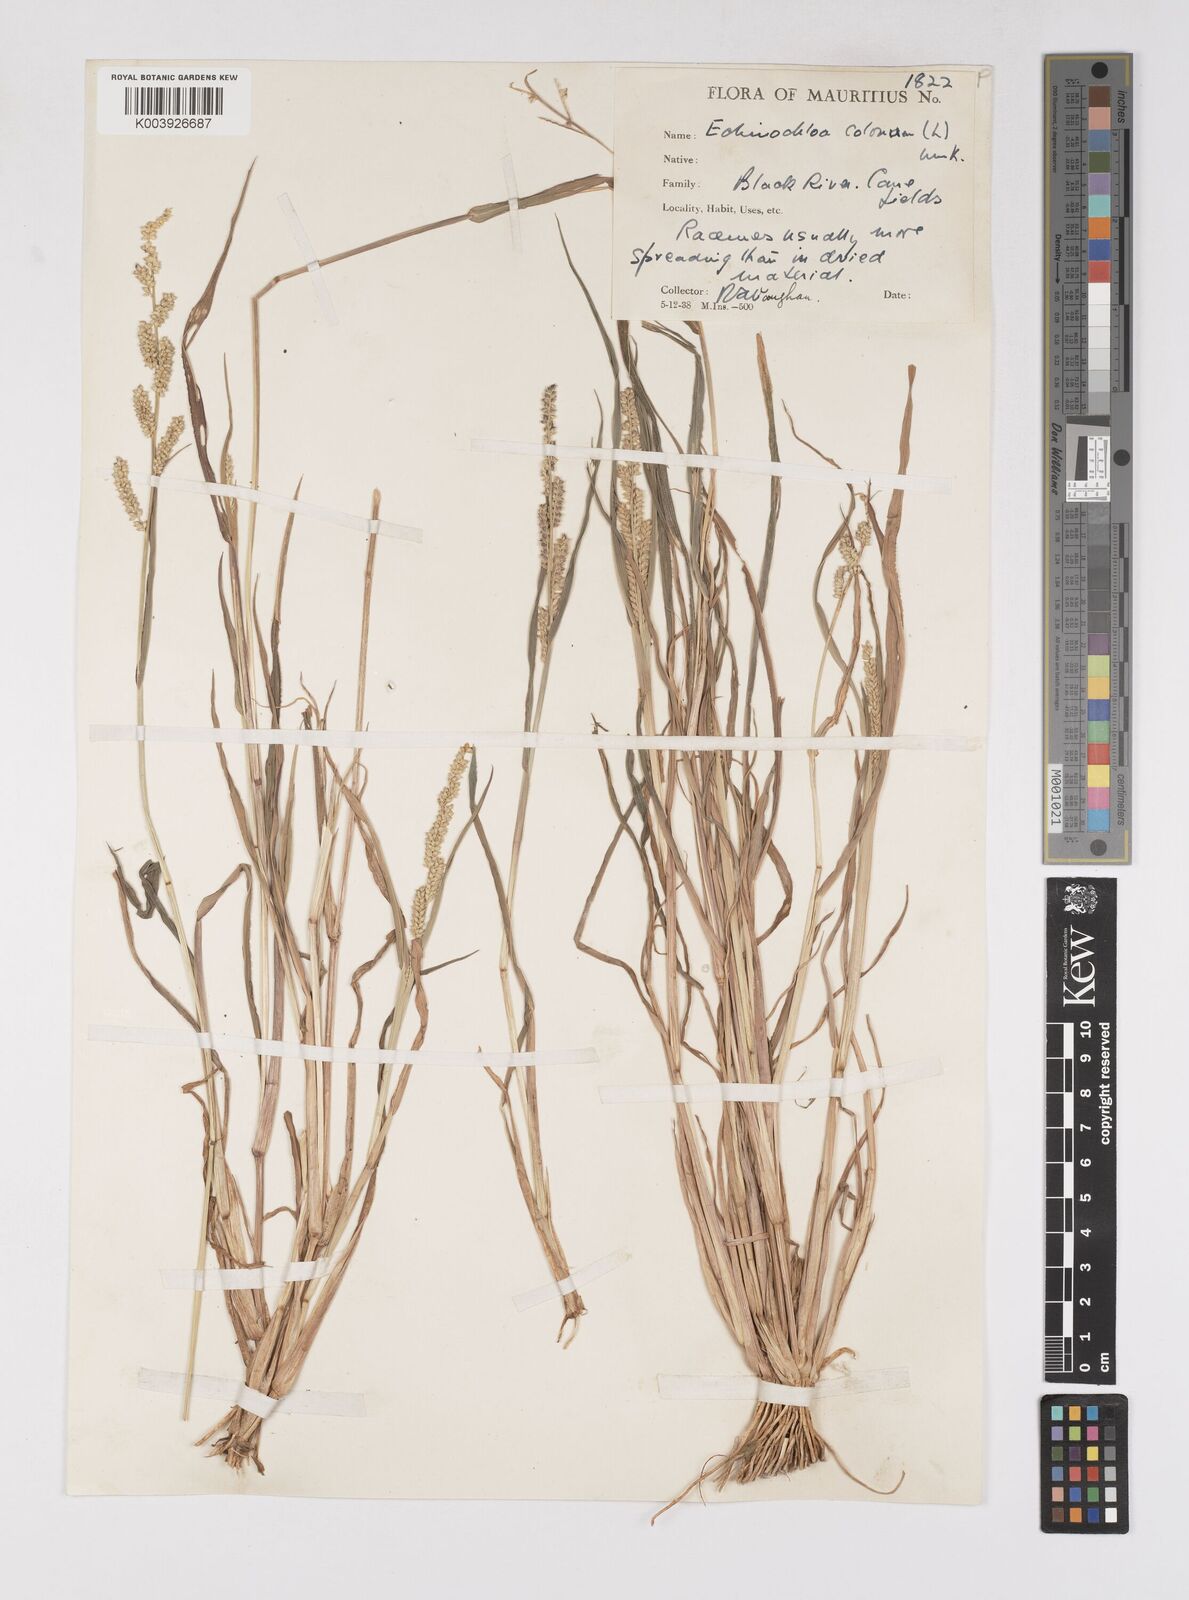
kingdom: Plantae
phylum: Tracheophyta
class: Liliopsida
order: Poales
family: Poaceae
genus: Echinochloa
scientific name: Echinochloa colonum
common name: Jungle rice
